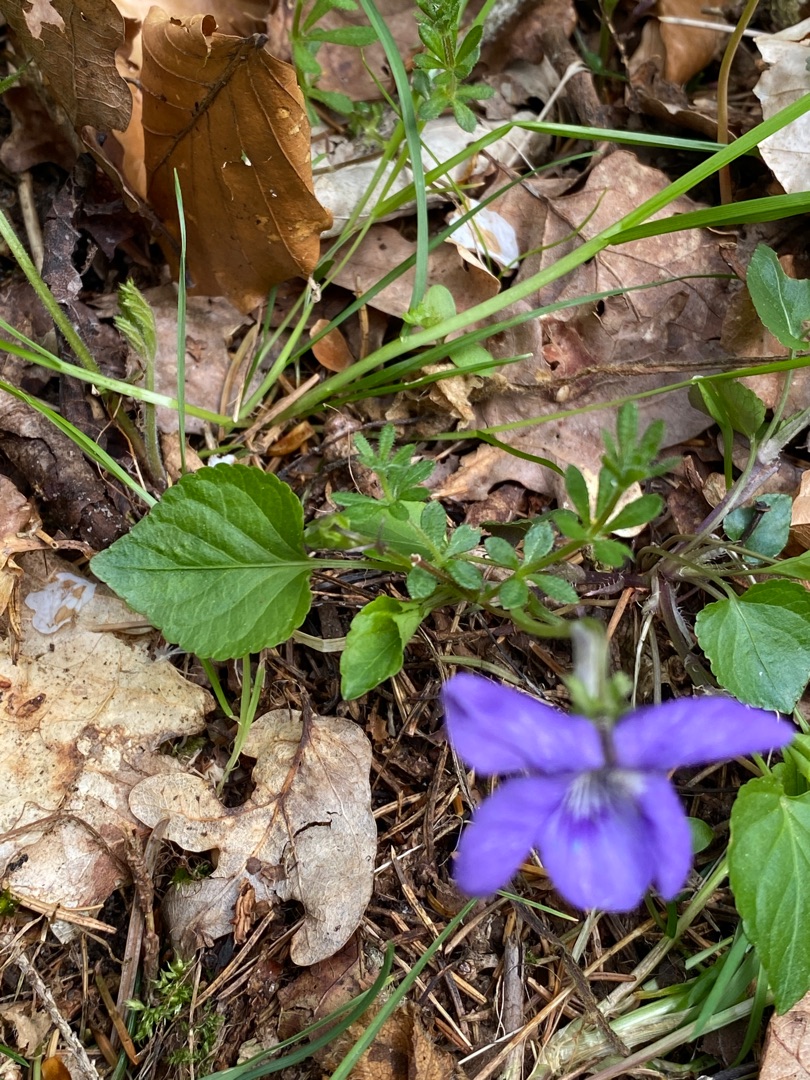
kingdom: Plantae
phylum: Tracheophyta
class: Magnoliopsida
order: Malpighiales
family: Violaceae
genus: Viola
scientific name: Viola riviniana
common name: Krat-viol
